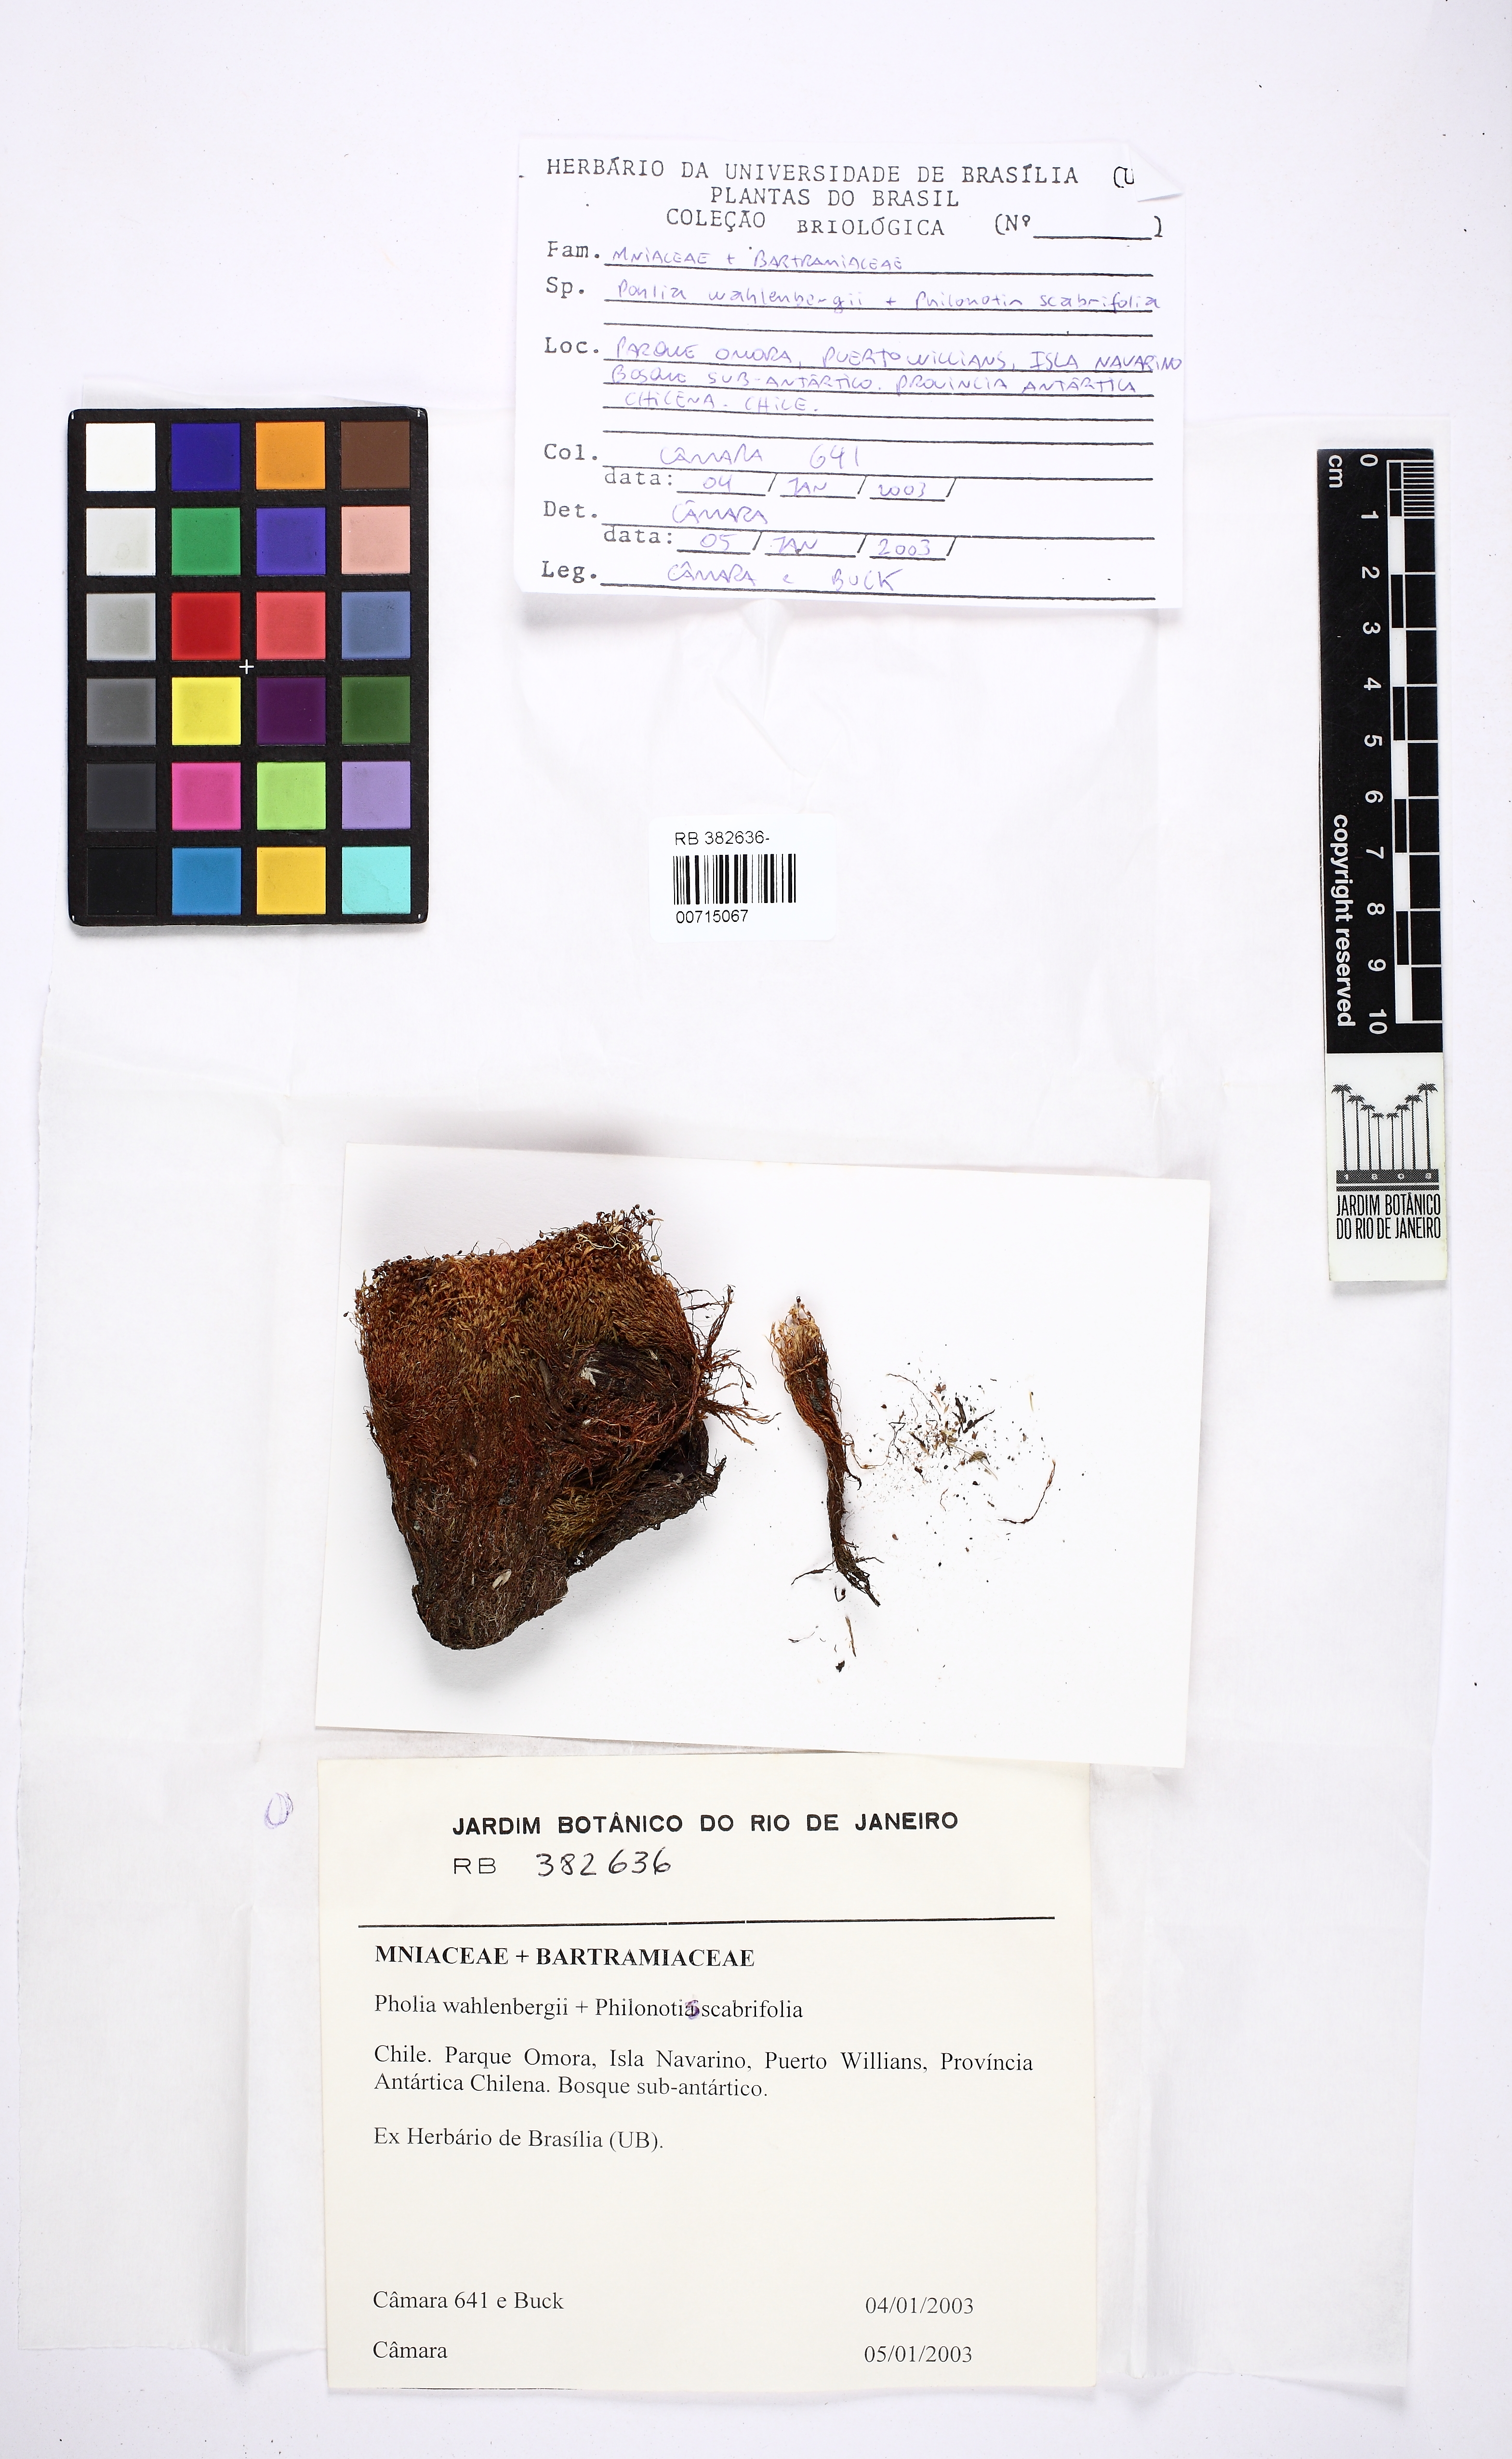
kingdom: Plantae
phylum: Bryophyta
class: Bryopsida
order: Bryales
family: Mniaceae
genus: Pohlia
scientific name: Pohlia wahlenbergii
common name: Wahlenberg's nodding moss
